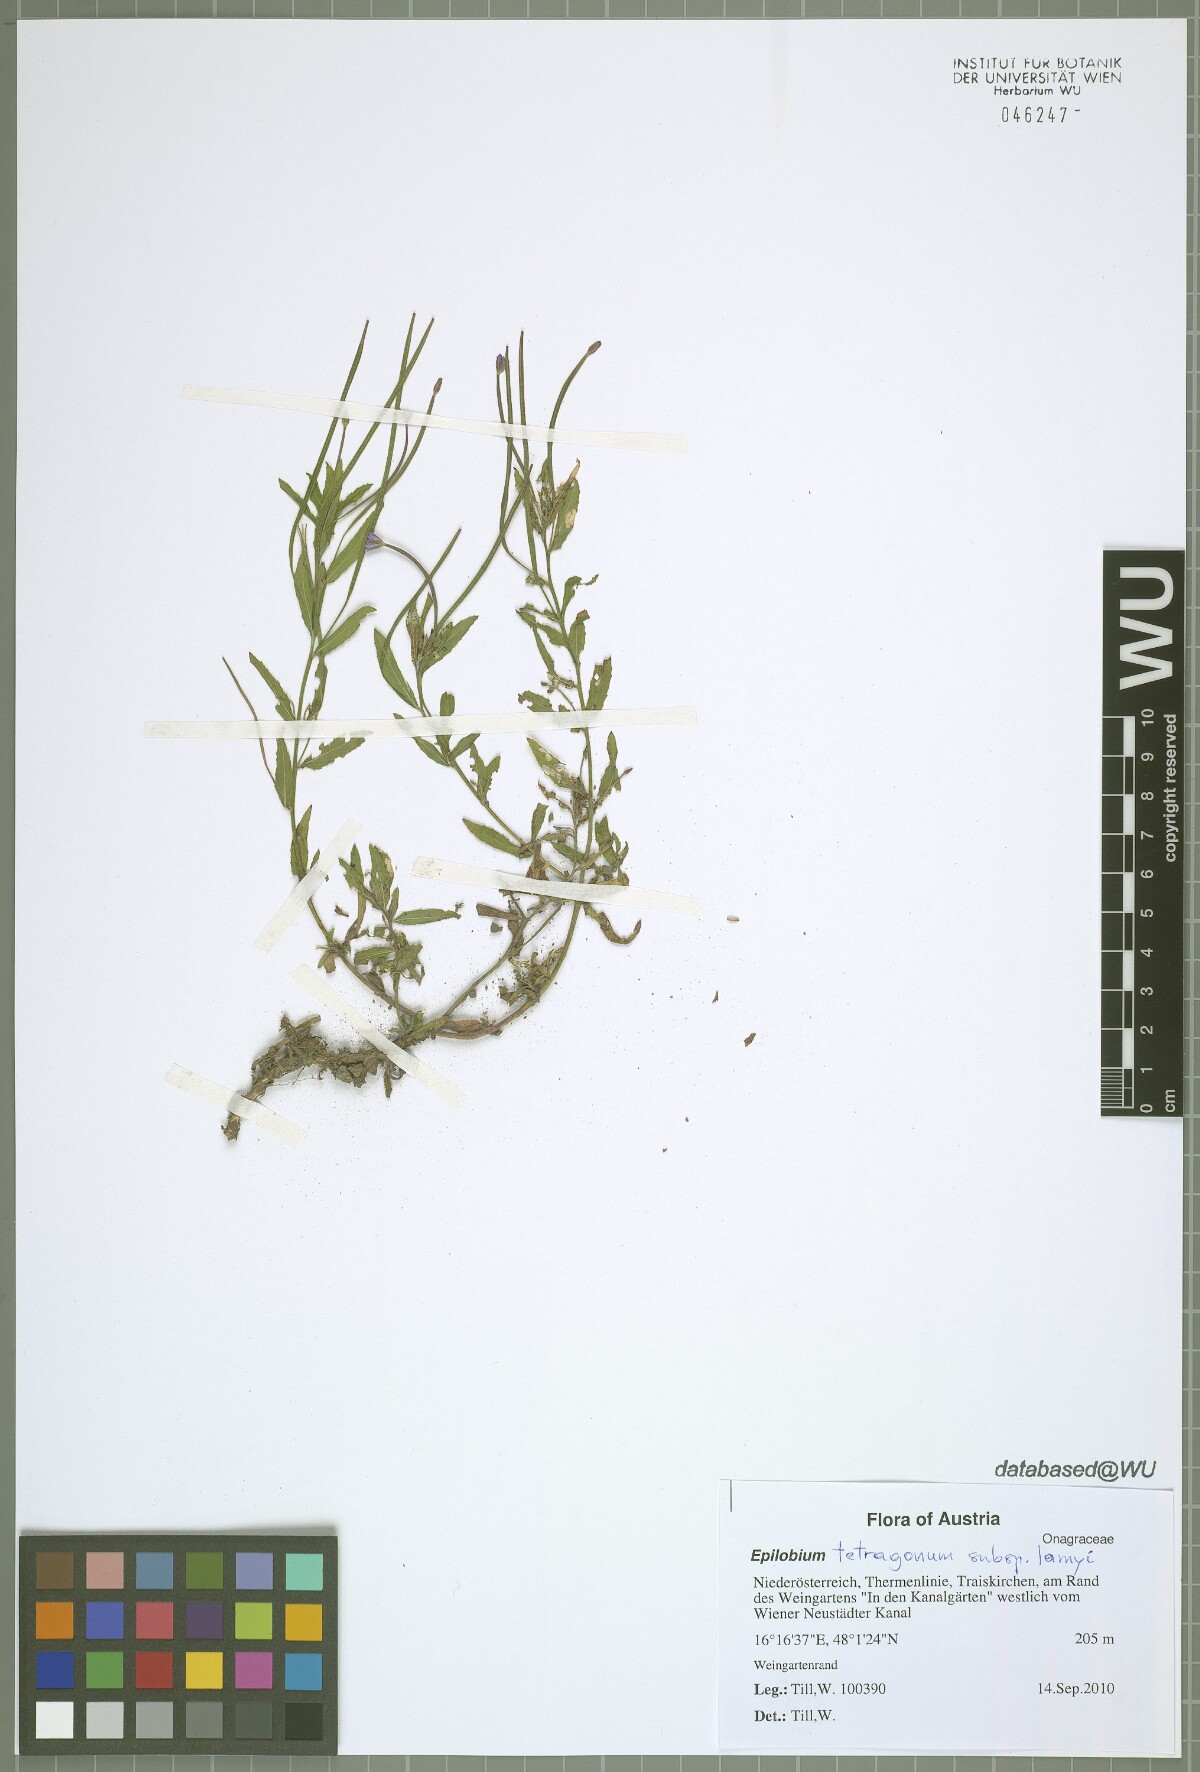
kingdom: Plantae
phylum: Tracheophyta
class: Magnoliopsida
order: Myrtales
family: Onagraceae
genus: Epilobium
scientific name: Epilobium lamyi
